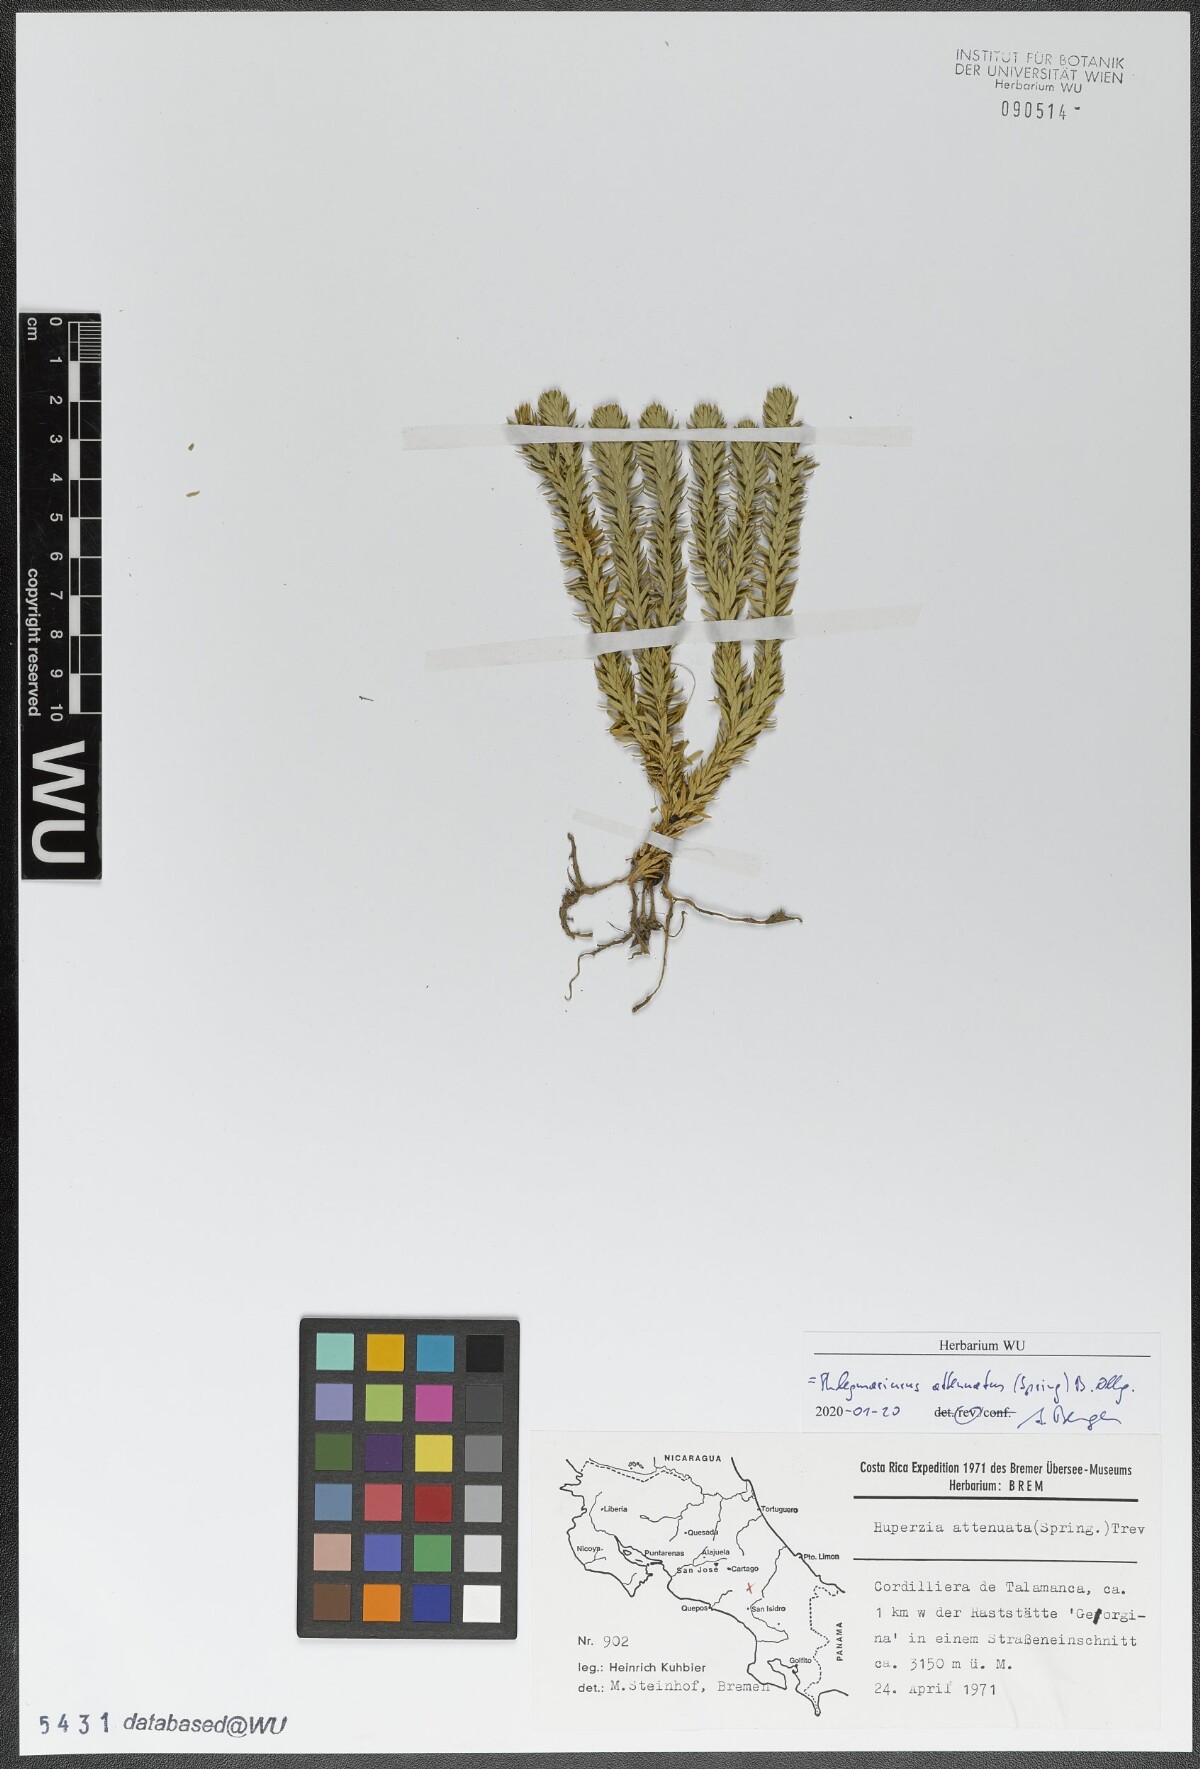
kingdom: Plantae
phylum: Tracheophyta
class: Lycopodiopsida
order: Lycopodiales
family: Lycopodiaceae
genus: Phlegmariurus
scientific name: Phlegmariurus attenuatus
